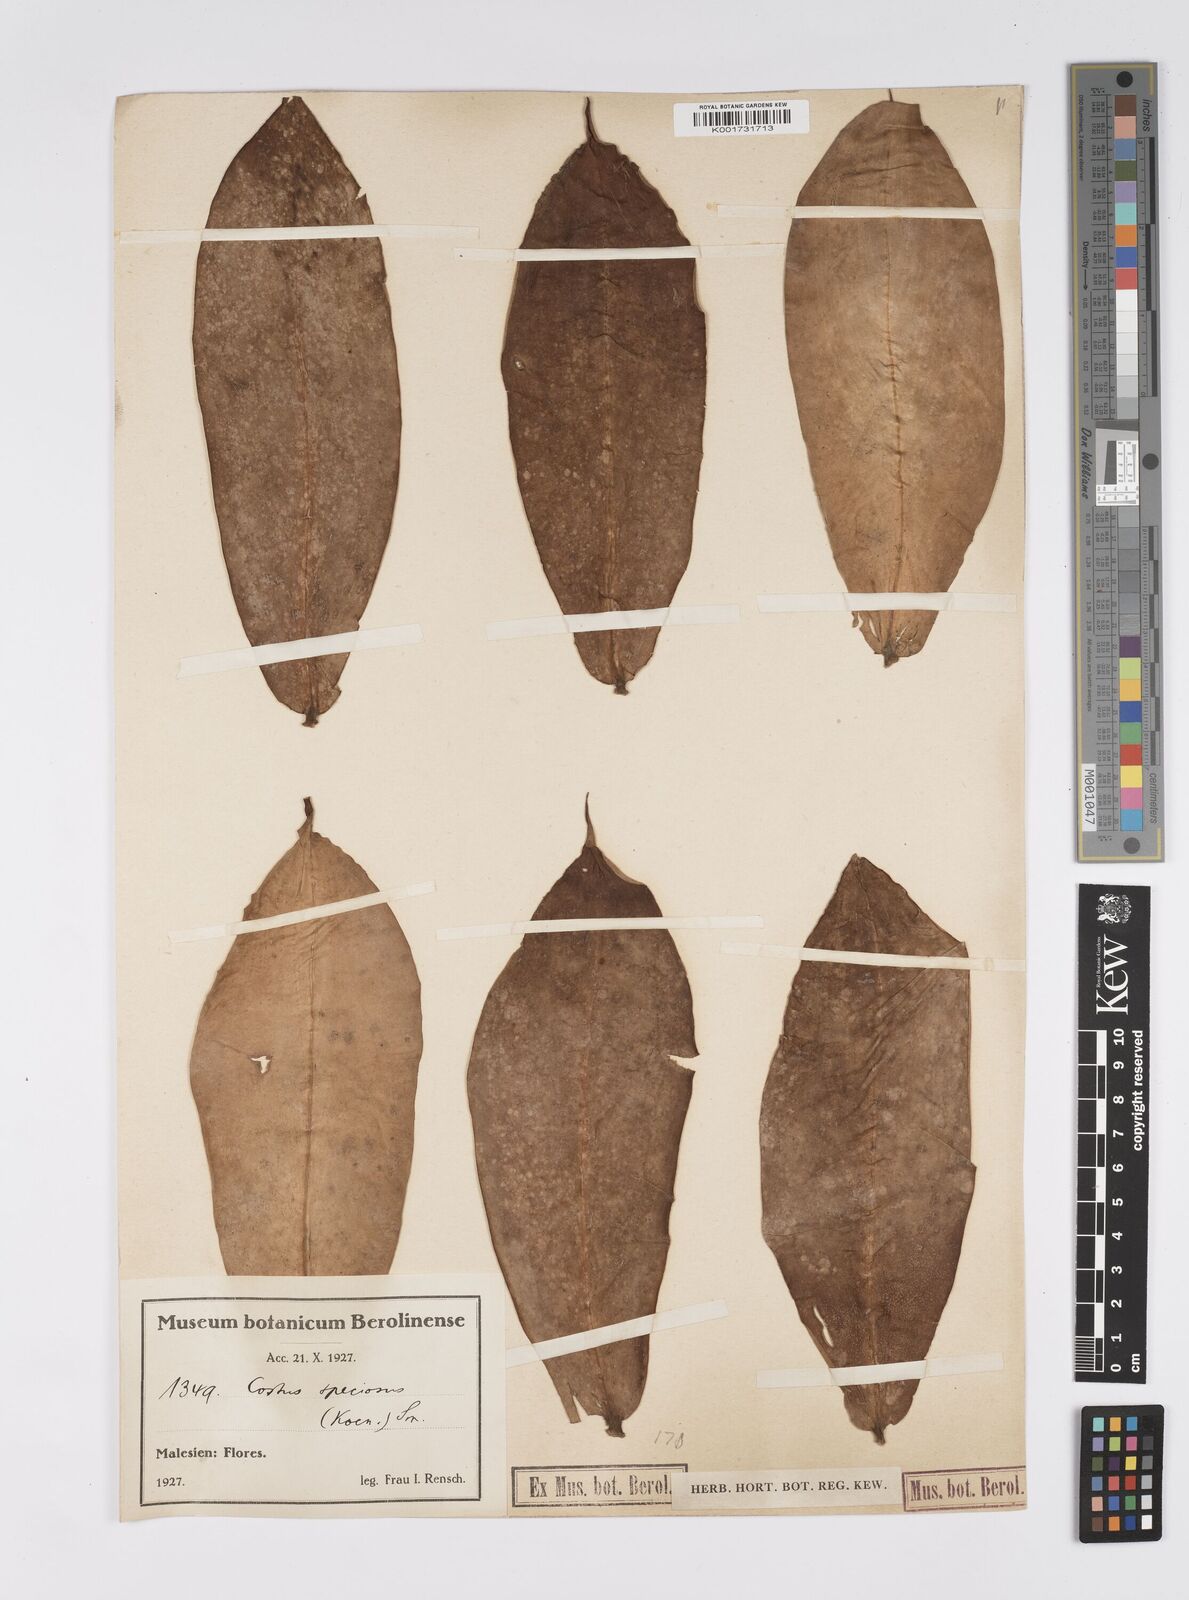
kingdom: Plantae
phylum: Tracheophyta
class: Liliopsida
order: Zingiberales
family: Costaceae
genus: Hellenia
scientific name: Hellenia speciosa
